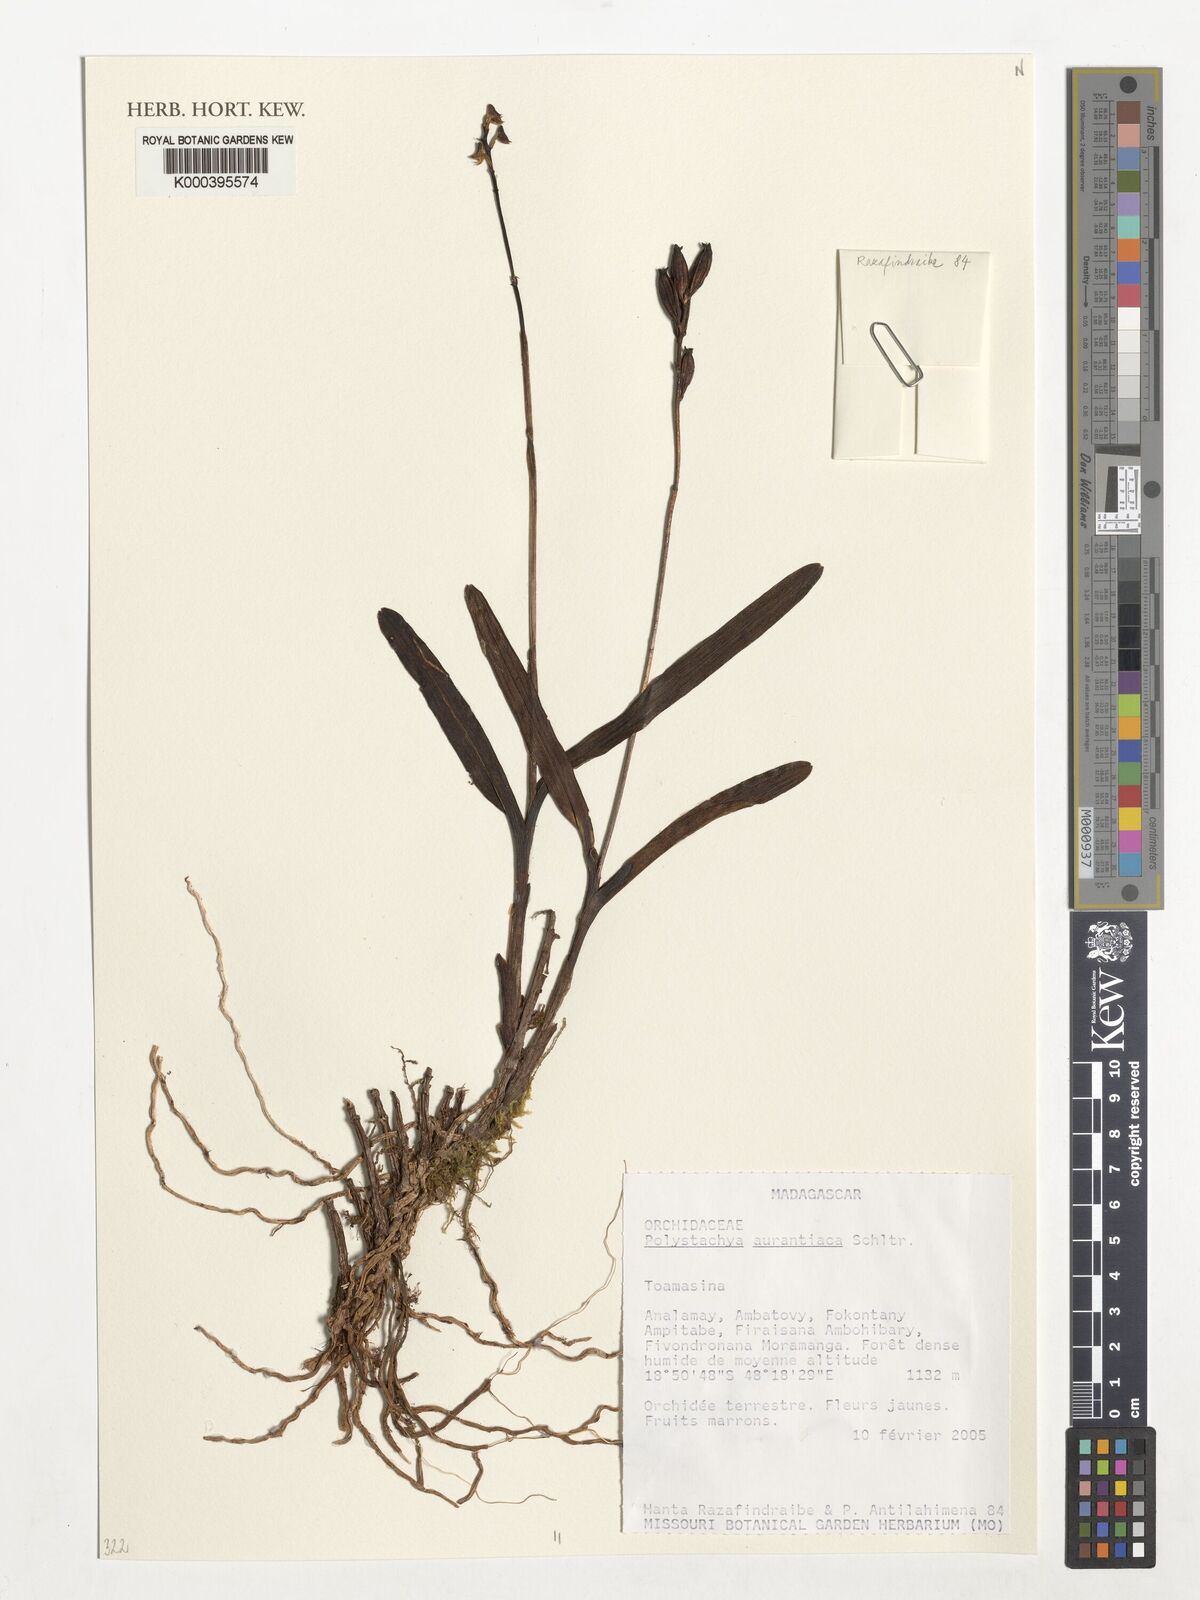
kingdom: Plantae
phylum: Tracheophyta
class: Liliopsida
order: Asparagales
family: Orchidaceae
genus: Polystachya
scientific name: Polystachya aurantiaca
